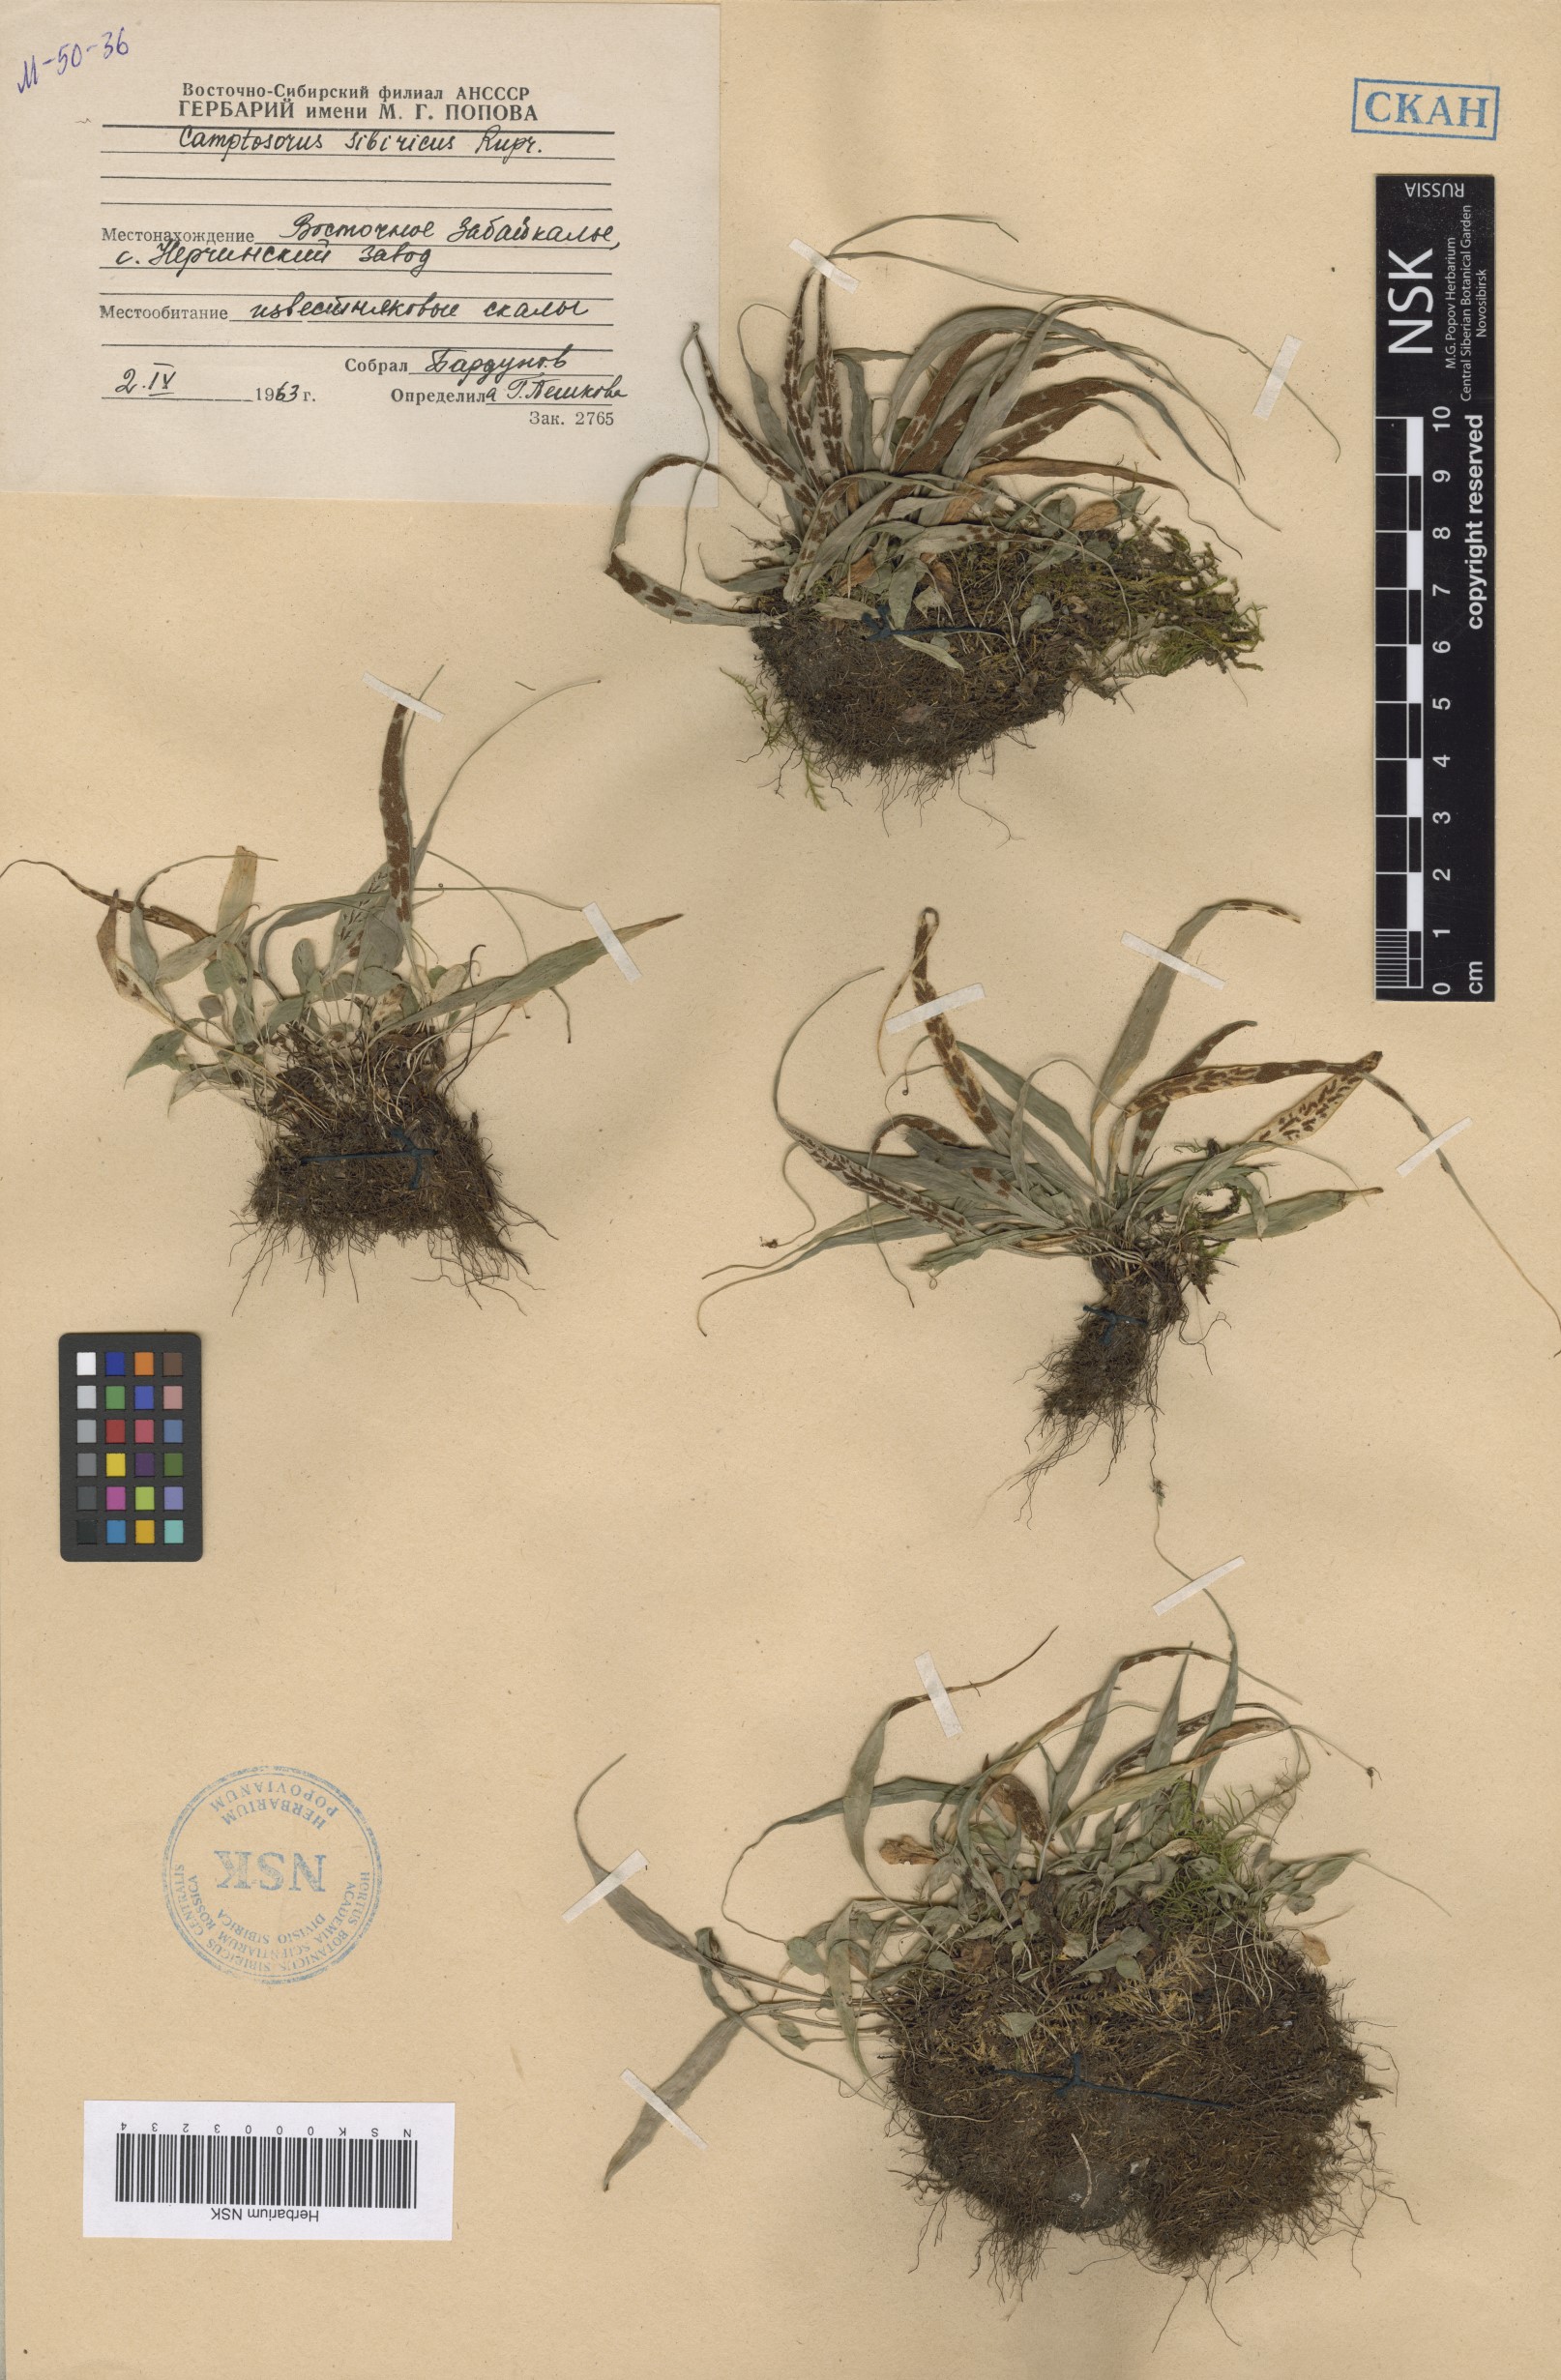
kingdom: Plantae
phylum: Tracheophyta
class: Polypodiopsida
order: Polypodiales
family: Aspleniaceae
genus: Asplenium
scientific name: Asplenium ruprechtii
